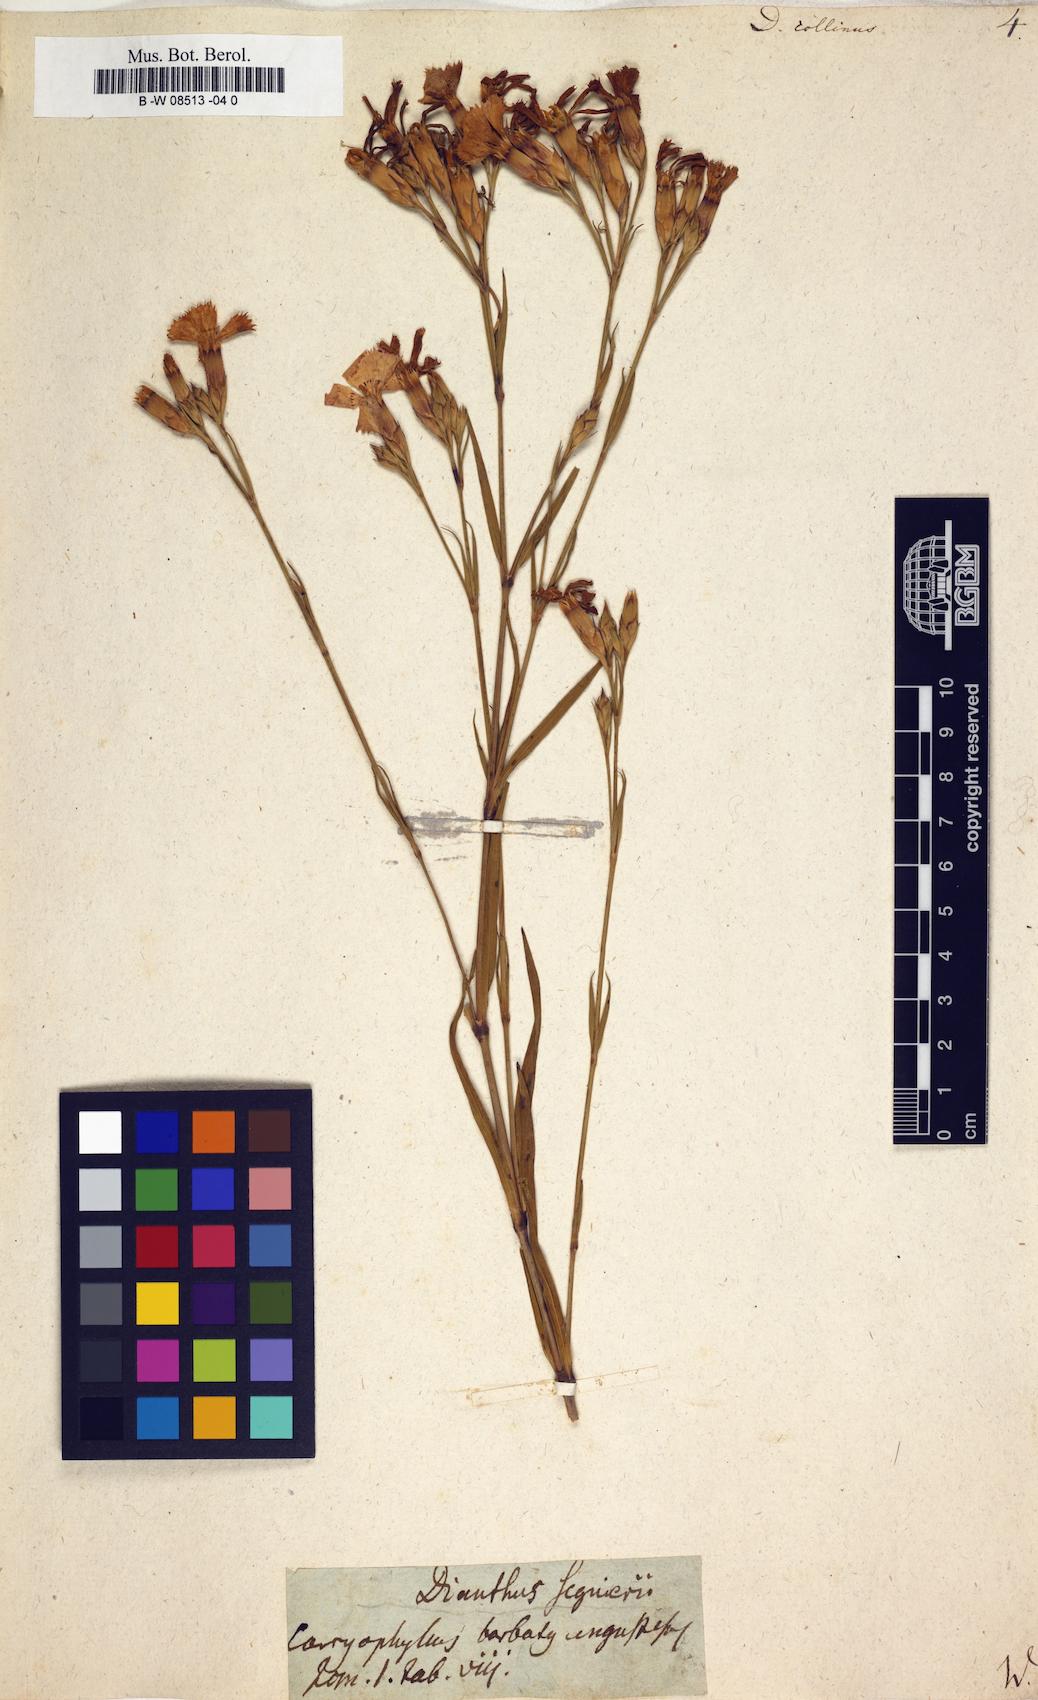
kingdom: Plantae
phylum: Tracheophyta
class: Magnoliopsida
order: Caryophyllales
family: Caryophyllaceae
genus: Dianthus
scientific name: Dianthus collinus
